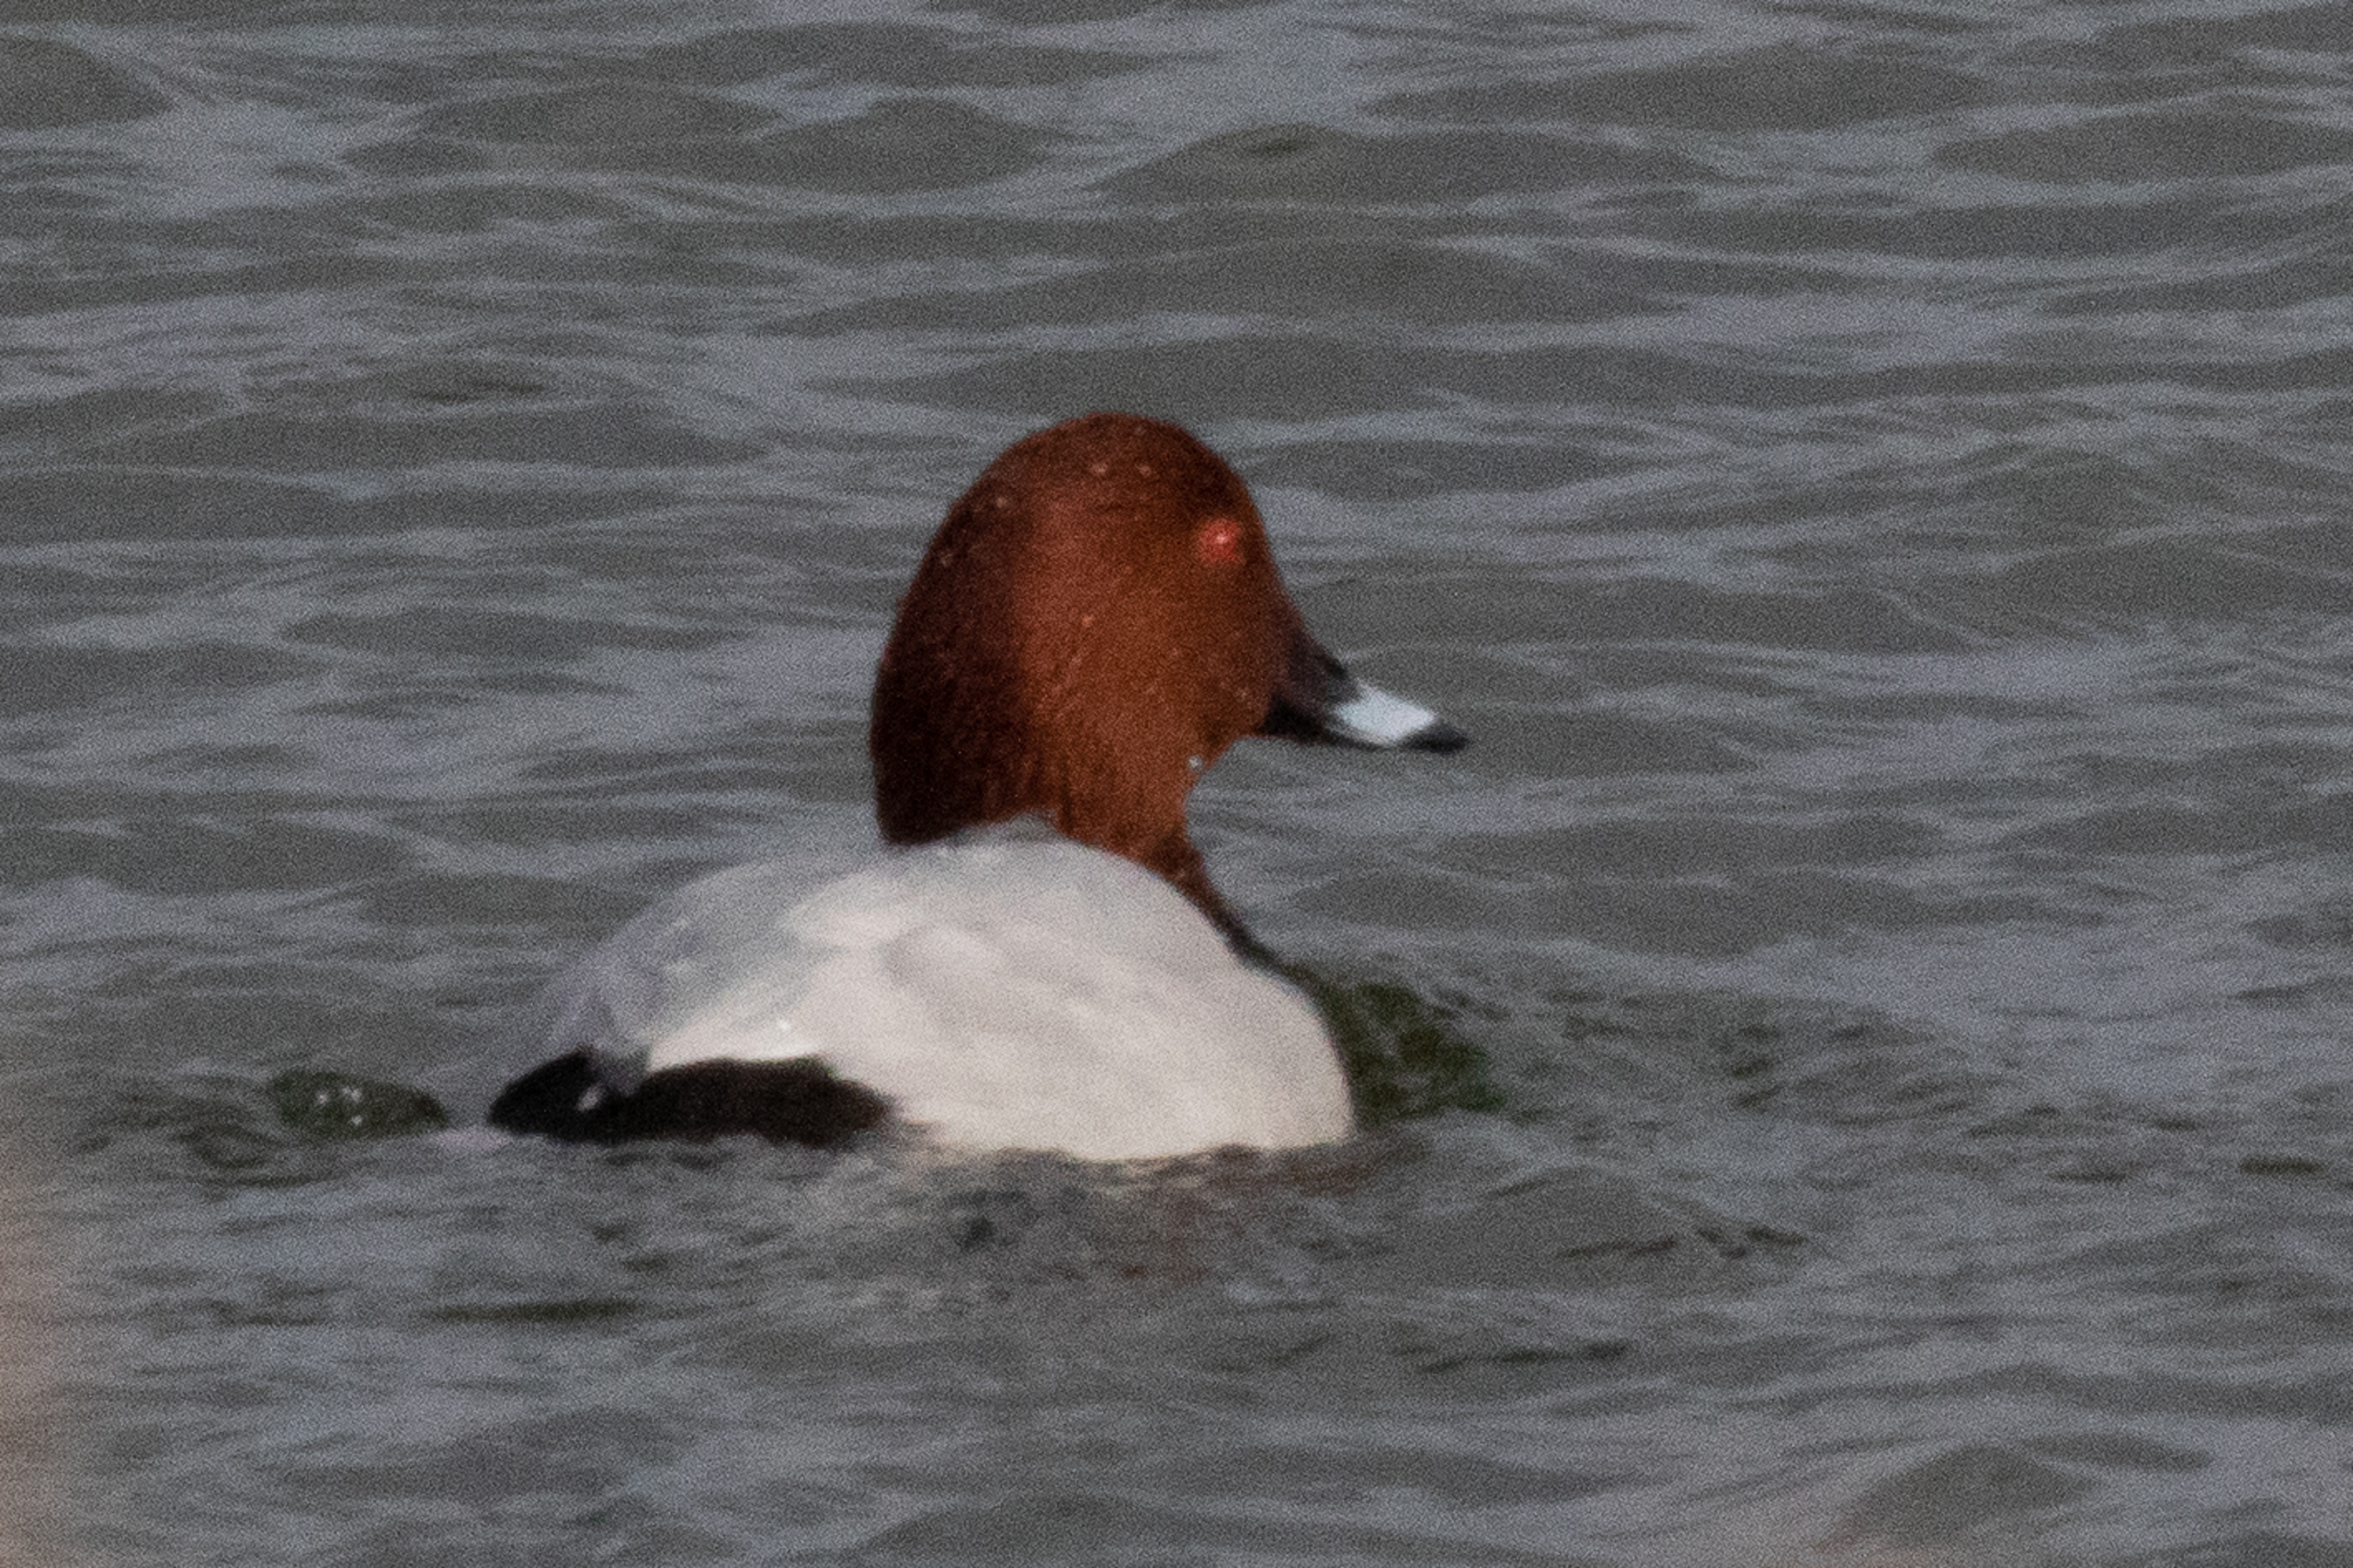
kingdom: Animalia
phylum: Chordata
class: Aves
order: Anseriformes
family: Anatidae
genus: Aythya
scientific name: Aythya ferina
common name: Taffeland
